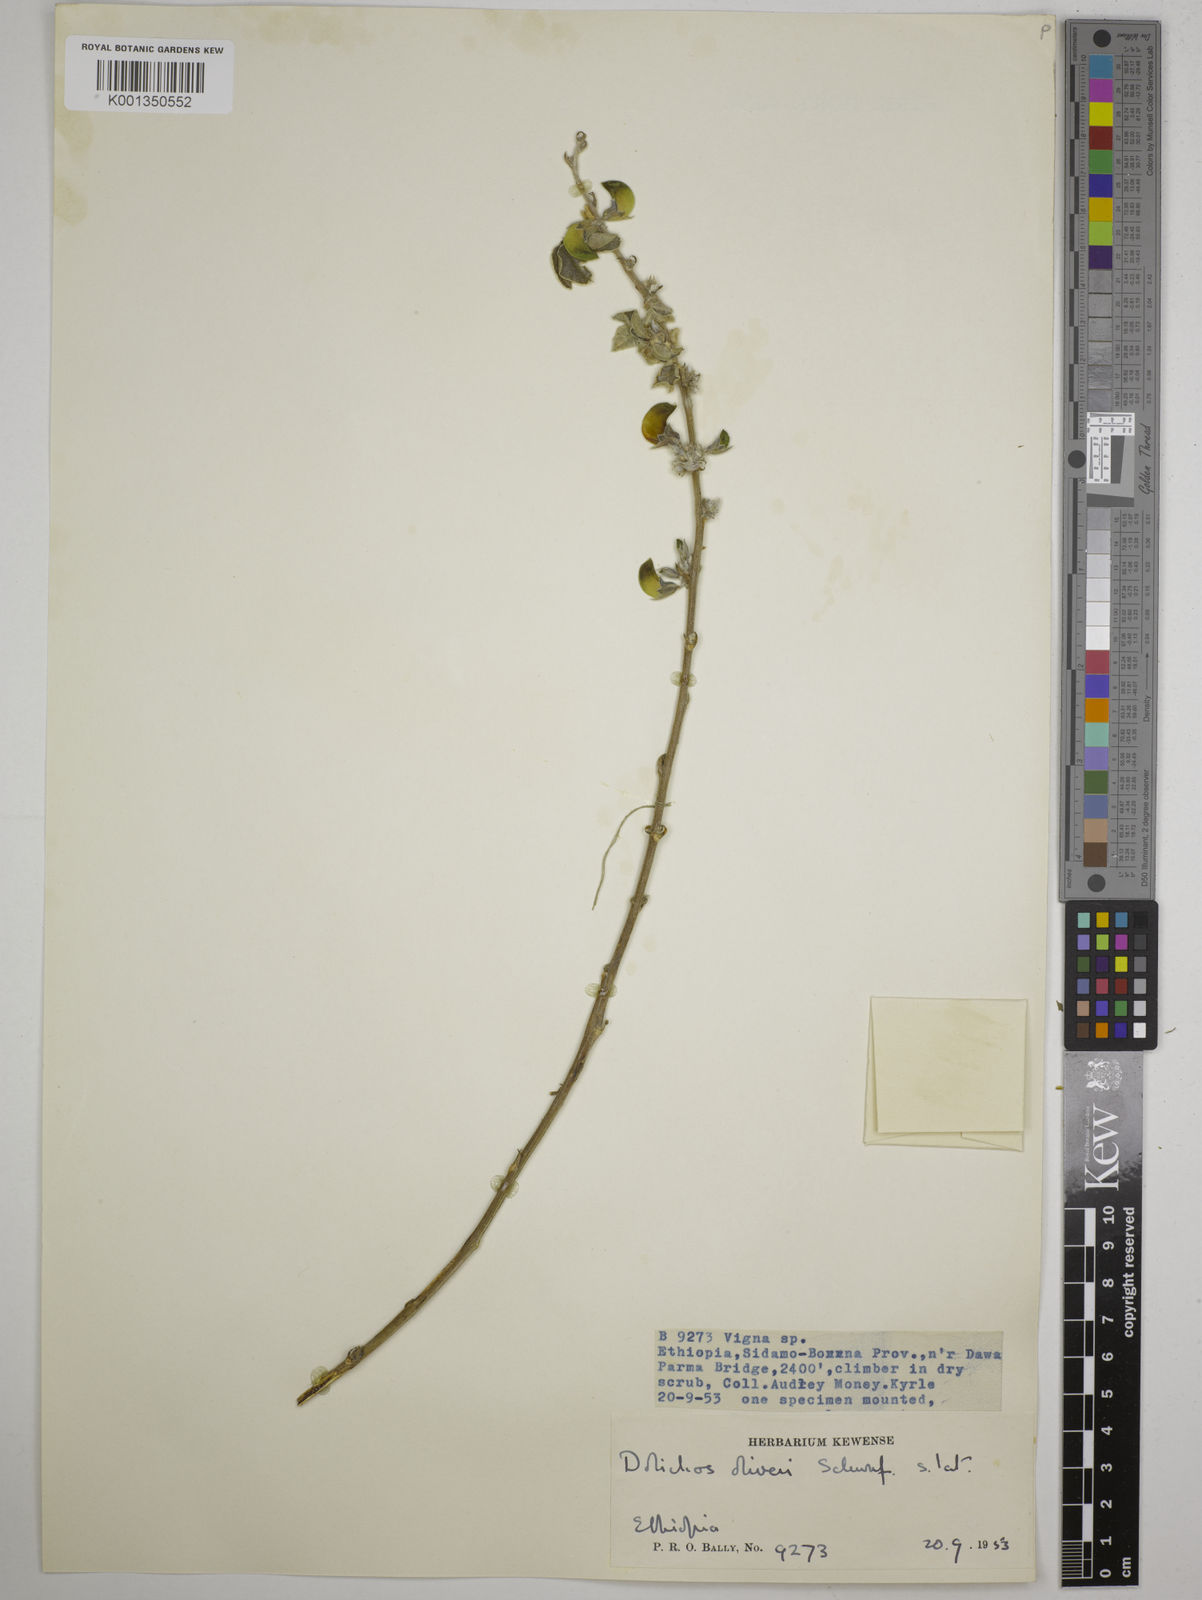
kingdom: Plantae
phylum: Tracheophyta
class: Magnoliopsida
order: Fabales
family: Fabaceae
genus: Dolichos
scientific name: Dolichos oliveri
